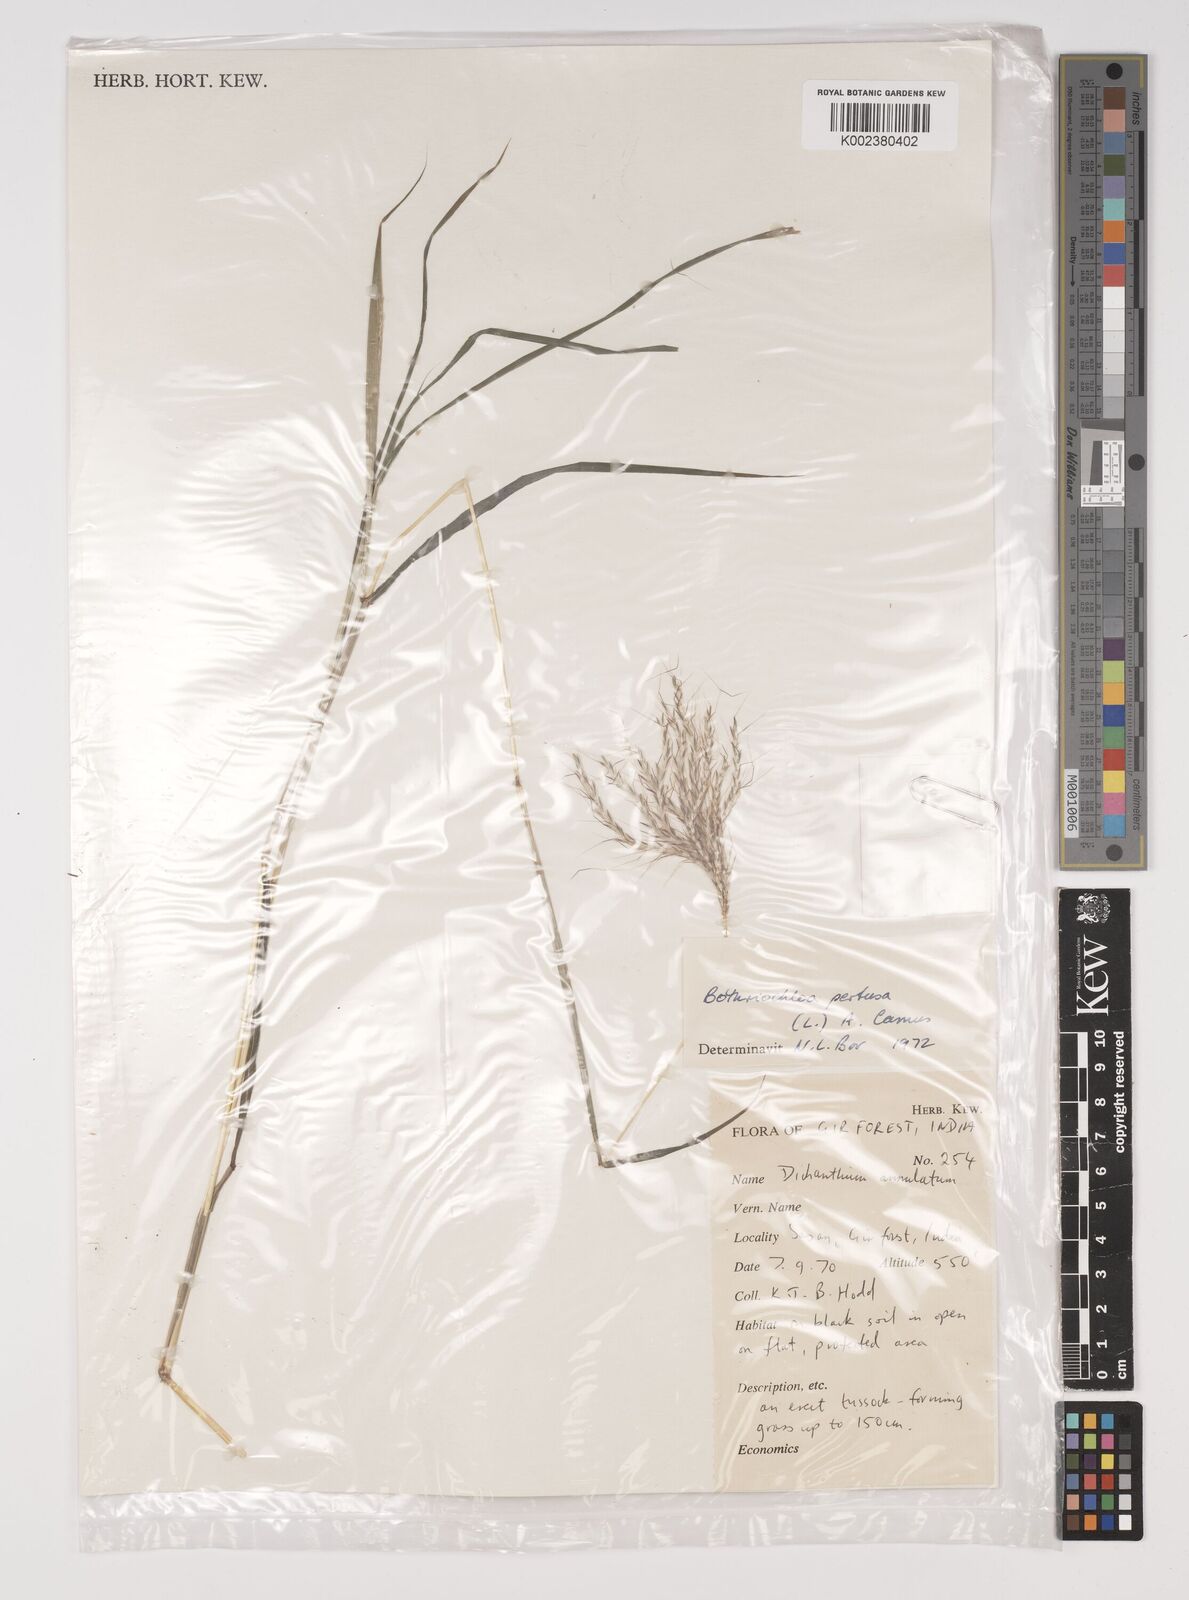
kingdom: Plantae
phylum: Tracheophyta
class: Liliopsida
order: Poales
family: Poaceae
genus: Bothriochloa
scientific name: Bothriochloa pertusa
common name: Pitted beardgrass
